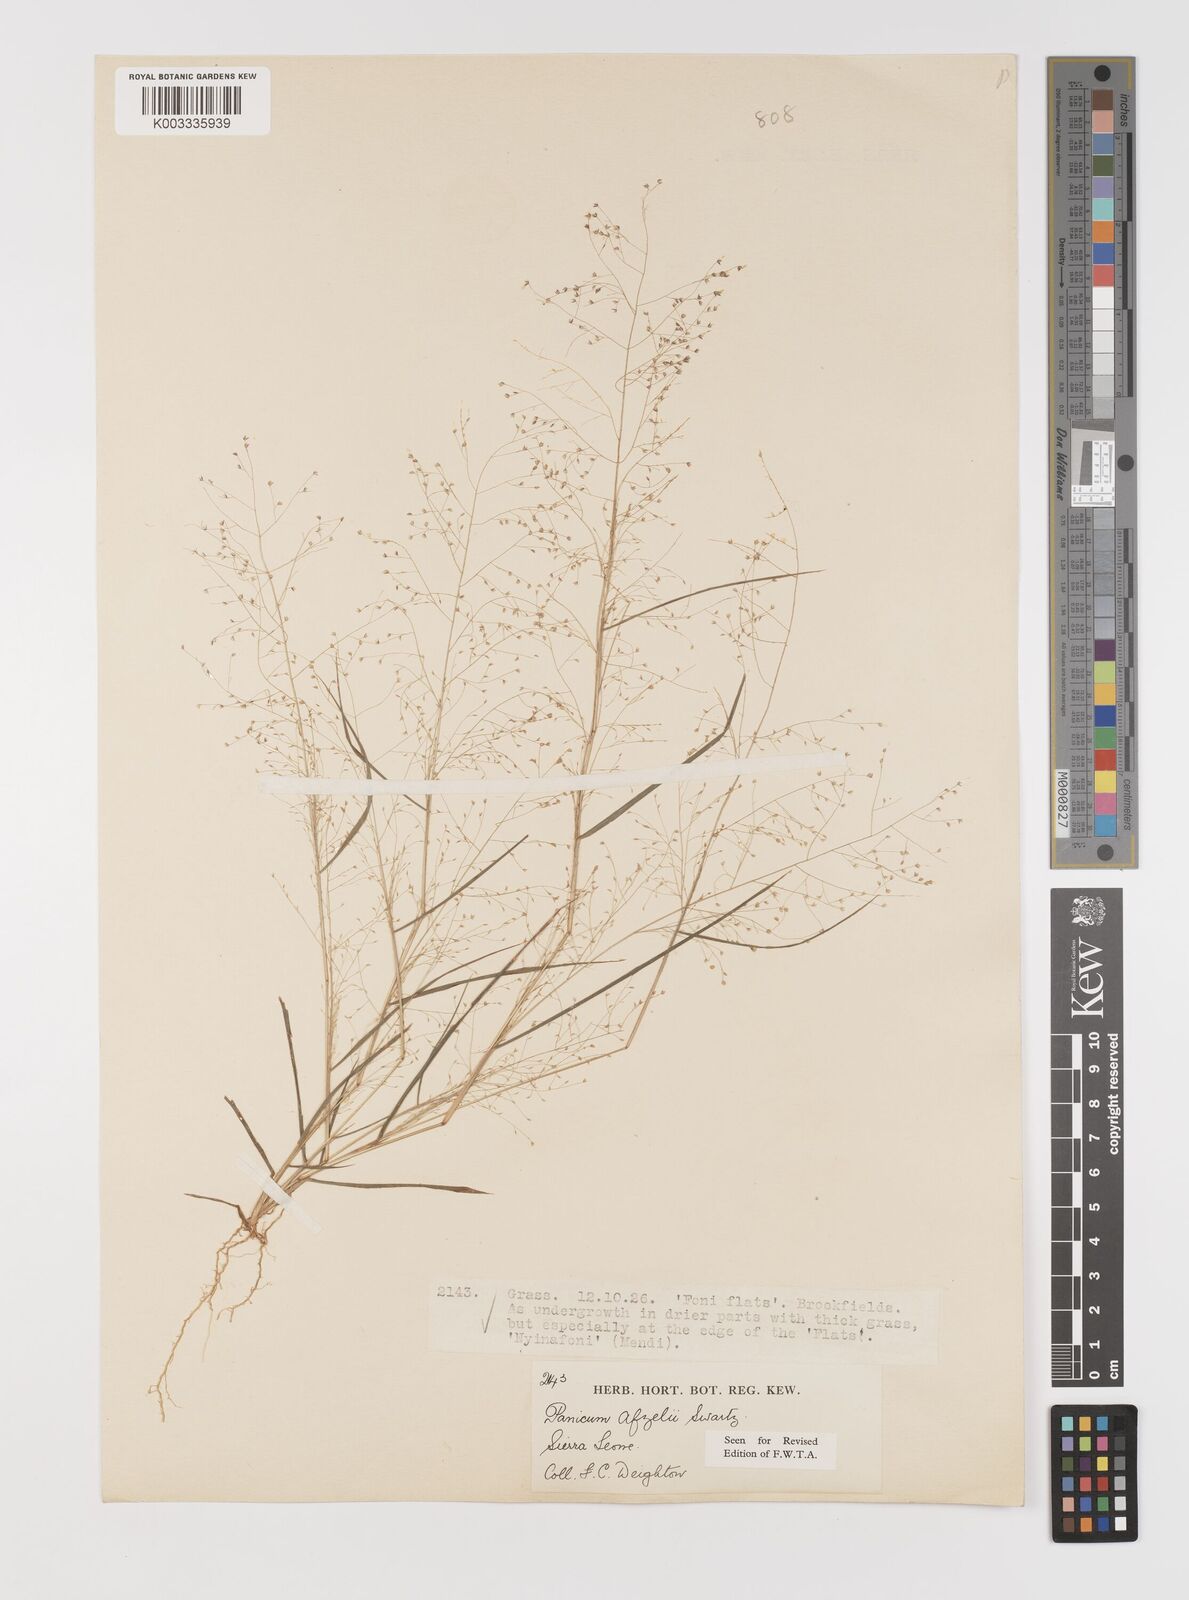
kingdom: Plantae
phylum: Tracheophyta
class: Liliopsida
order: Poales
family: Poaceae
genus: Panicum
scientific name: Panicum afzelii
